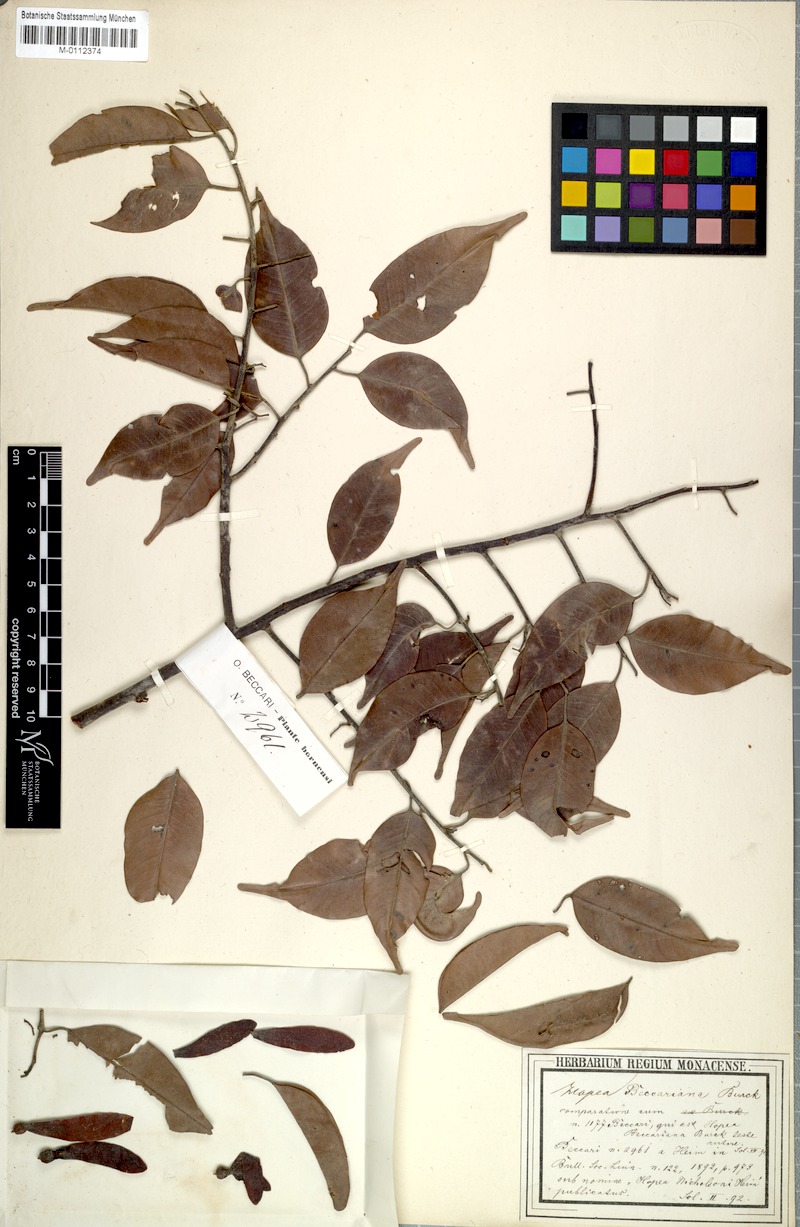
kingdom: Plantae
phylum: Tracheophyta
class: Magnoliopsida
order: Malvales
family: Dipterocarpaceae
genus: Hopea
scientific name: Hopea beccariana
